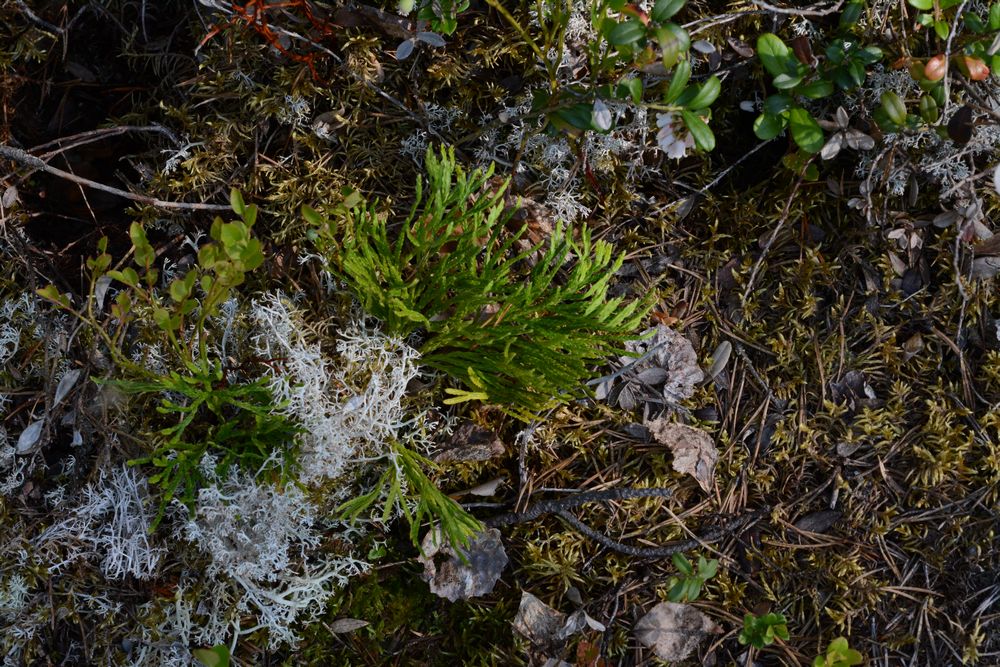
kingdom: Plantae
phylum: Tracheophyta
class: Lycopodiopsida
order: Lycopodiales
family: Lycopodiaceae
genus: Diphasiastrum
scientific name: Diphasiastrum complanatum
